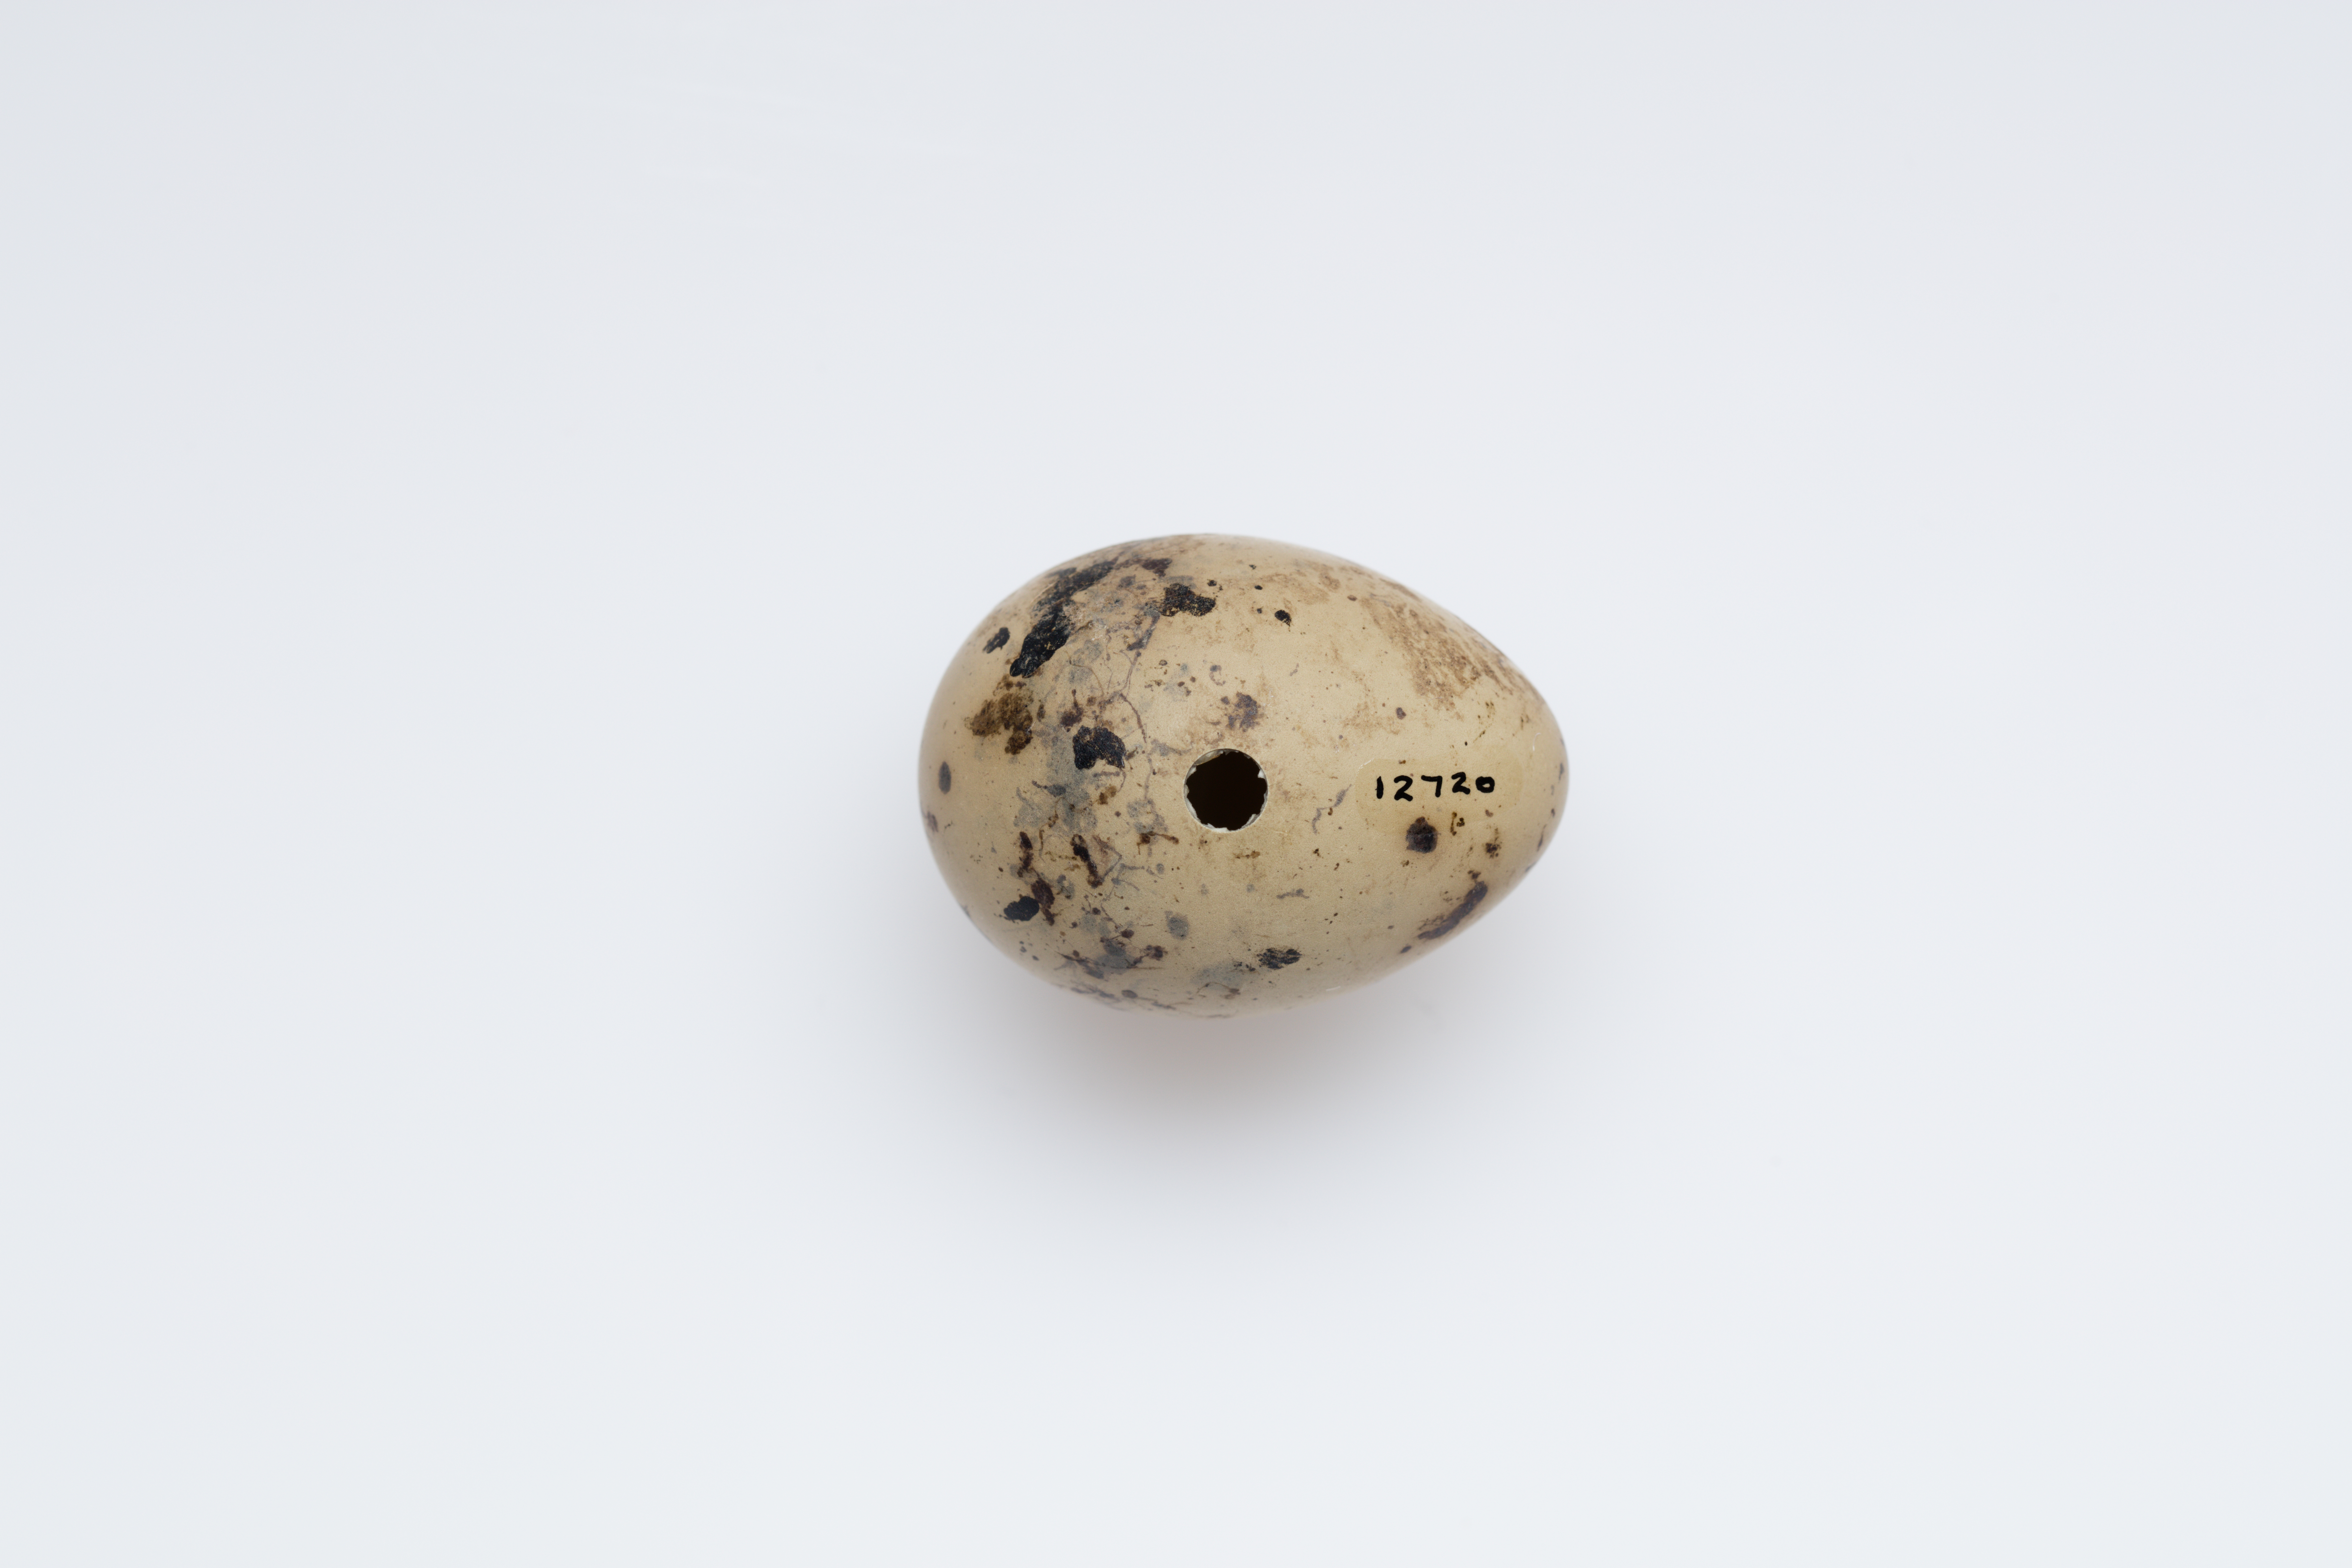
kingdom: Animalia
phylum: Chordata
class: Aves
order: Charadriiformes
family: Laridae
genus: Chlidonias
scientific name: Chlidonias albostriatus
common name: Black-fronted tern
